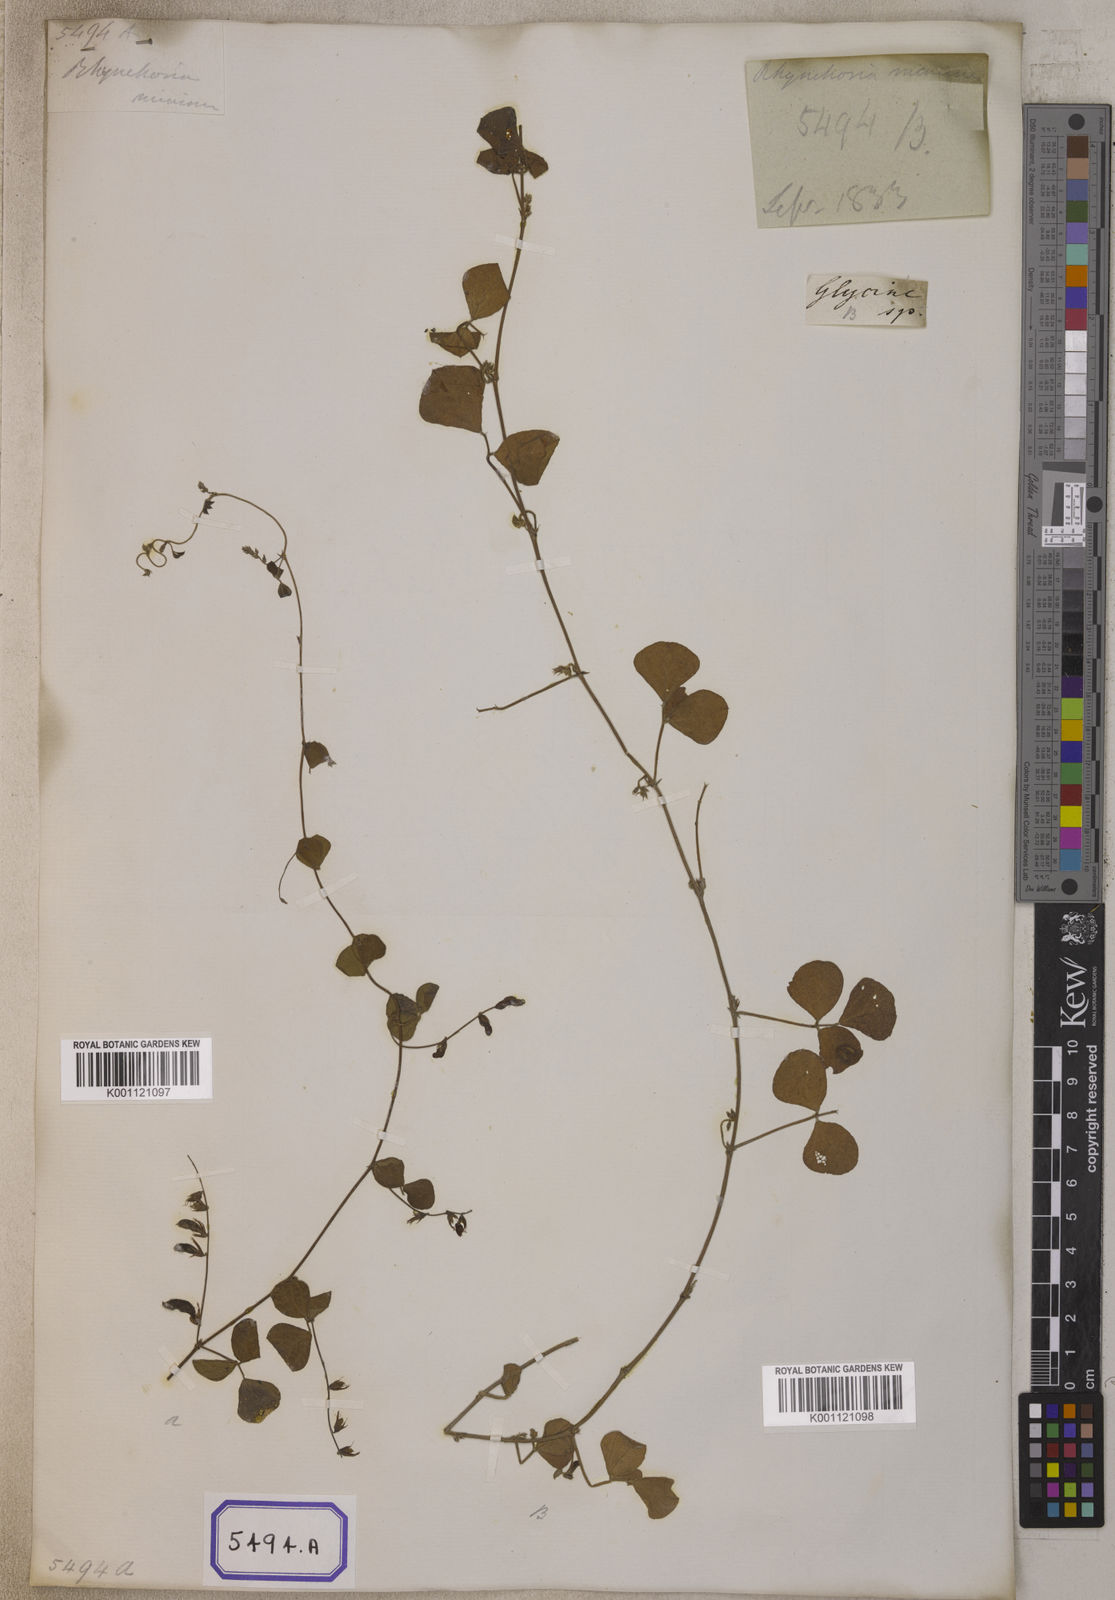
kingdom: Plantae
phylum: Tracheophyta
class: Magnoliopsida
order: Fabales
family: Fabaceae
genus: Rhynchosia
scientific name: Rhynchosia minima
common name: Least snoutbean
